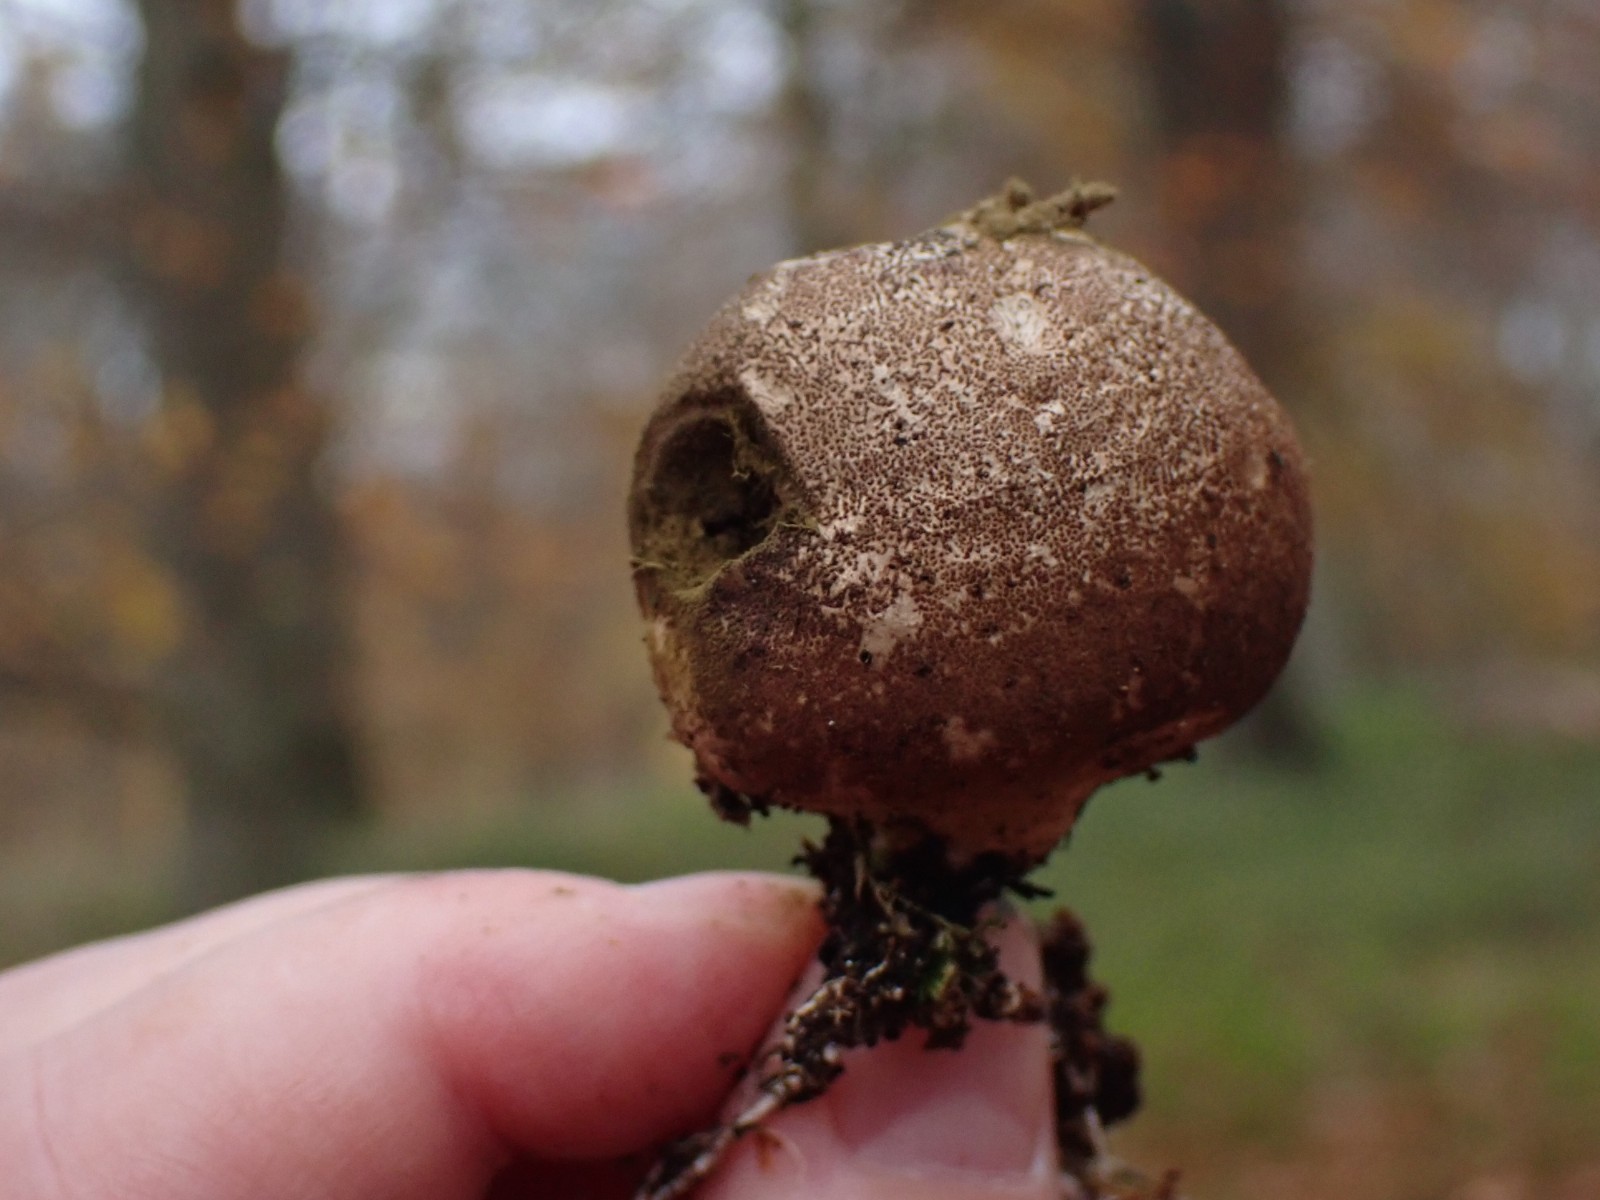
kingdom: Fungi
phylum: Basidiomycota
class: Agaricomycetes
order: Agaricales
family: Lycoperdaceae
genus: Apioperdon
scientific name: Apioperdon pyriforme
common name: pære-støvbold
